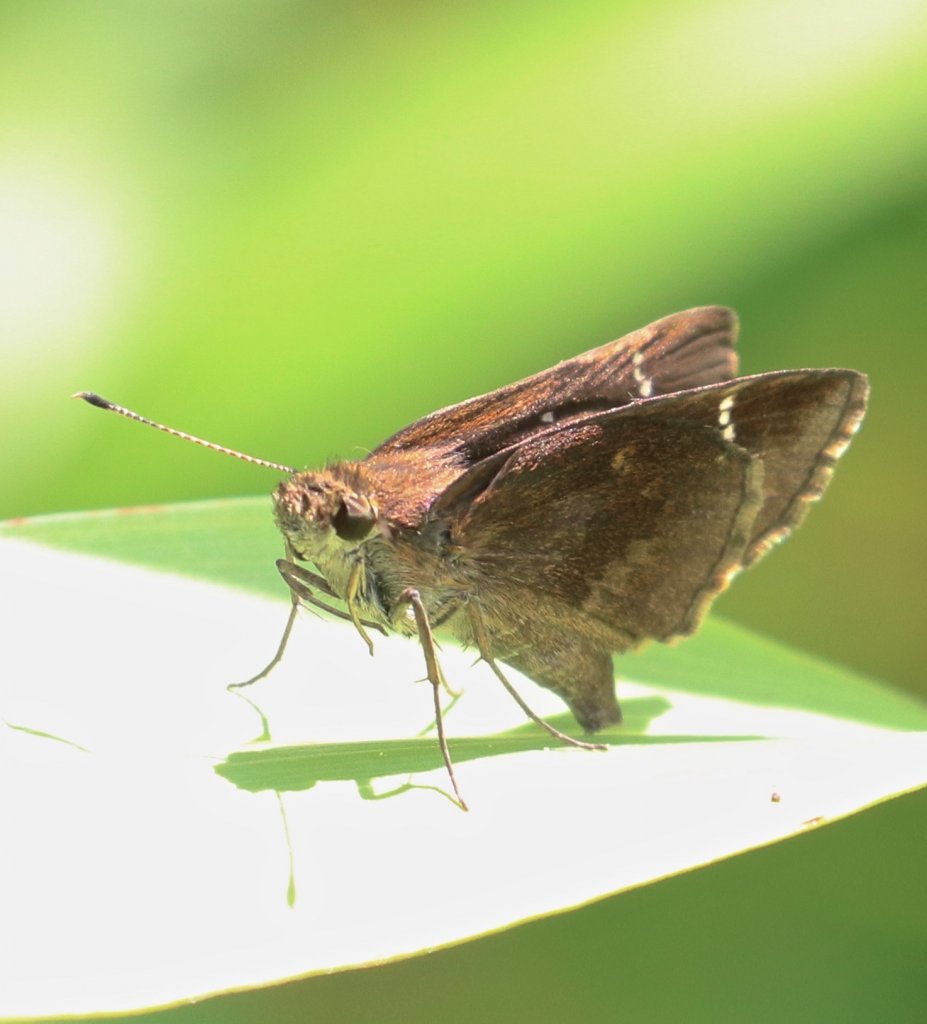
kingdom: Animalia
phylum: Arthropoda
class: Insecta
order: Lepidoptera
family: Hesperiidae
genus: Lerema
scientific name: Lerema accius
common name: Clouded Skipper
